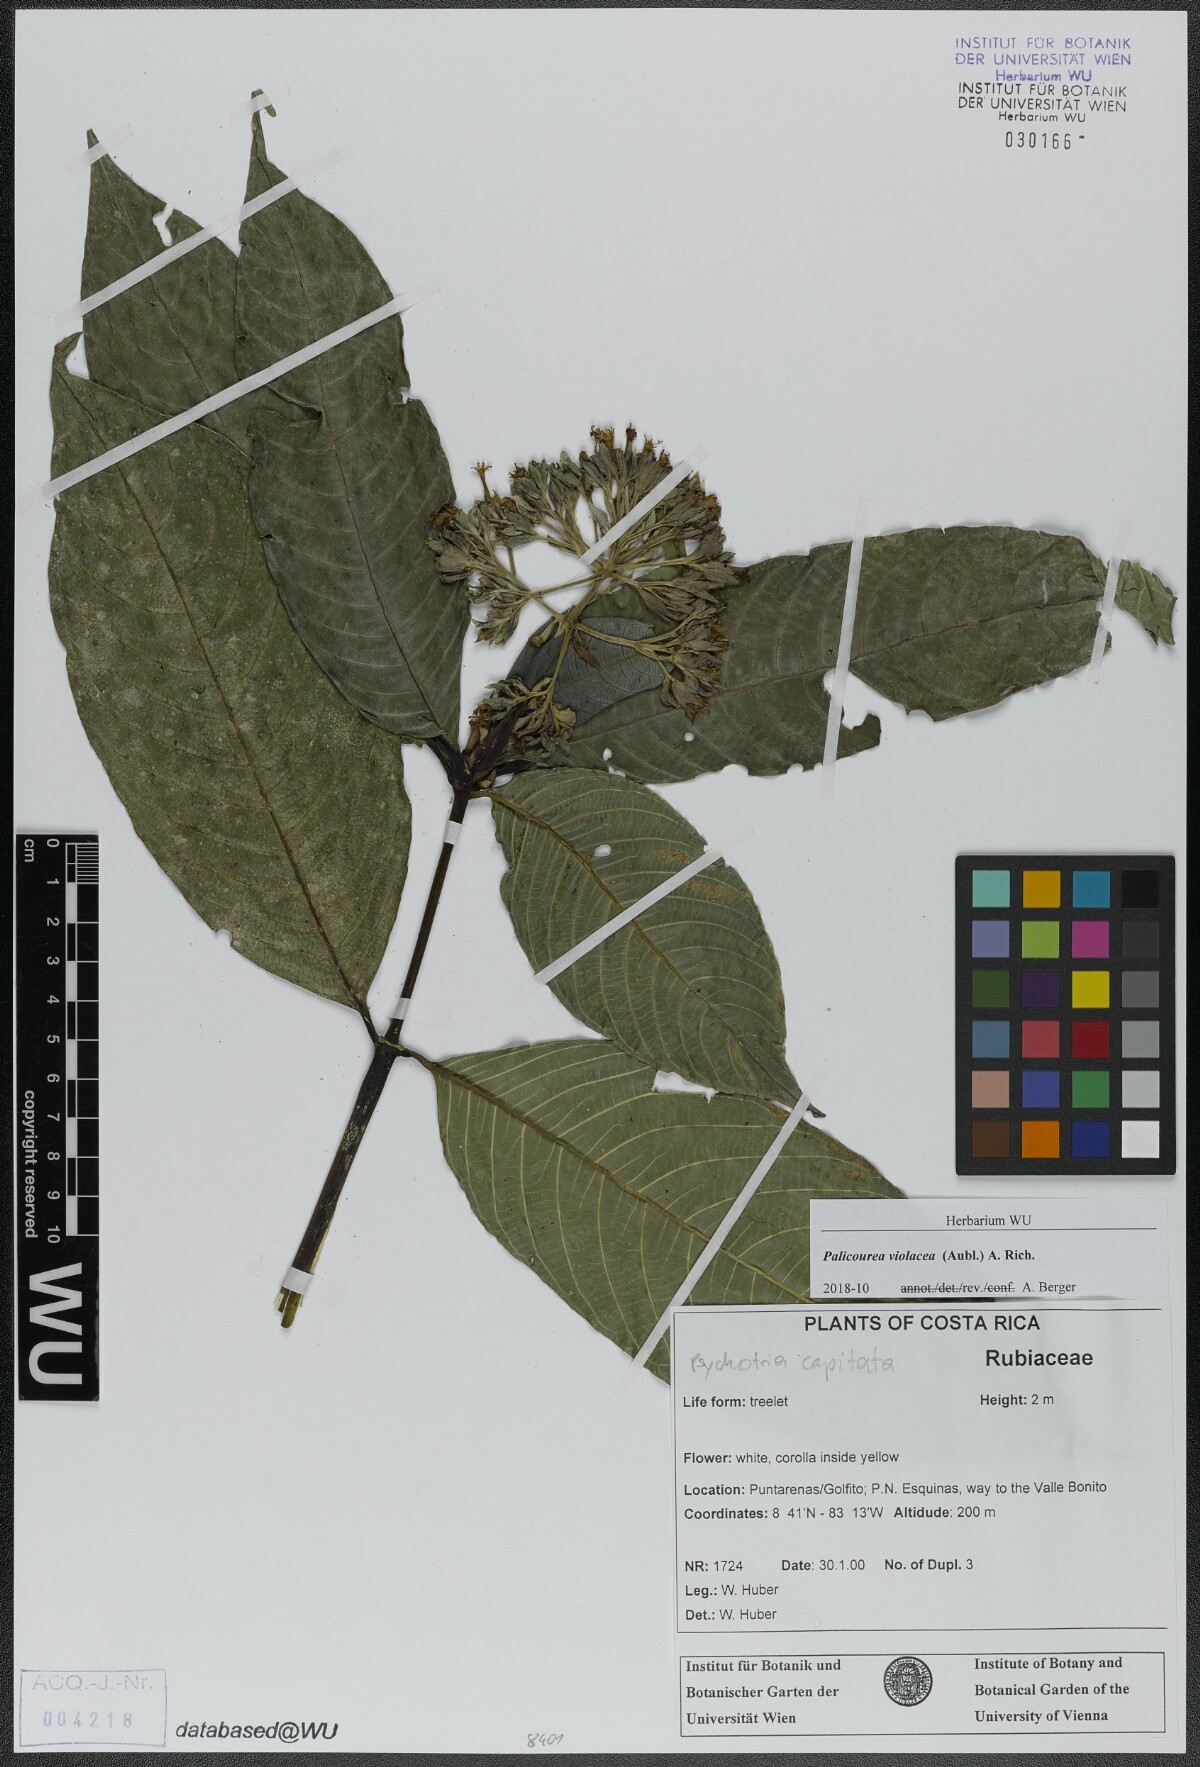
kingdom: Plantae
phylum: Tracheophyta
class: Magnoliopsida
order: Gentianales
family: Rubiaceae
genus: Palicourea
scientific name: Palicourea violacea
